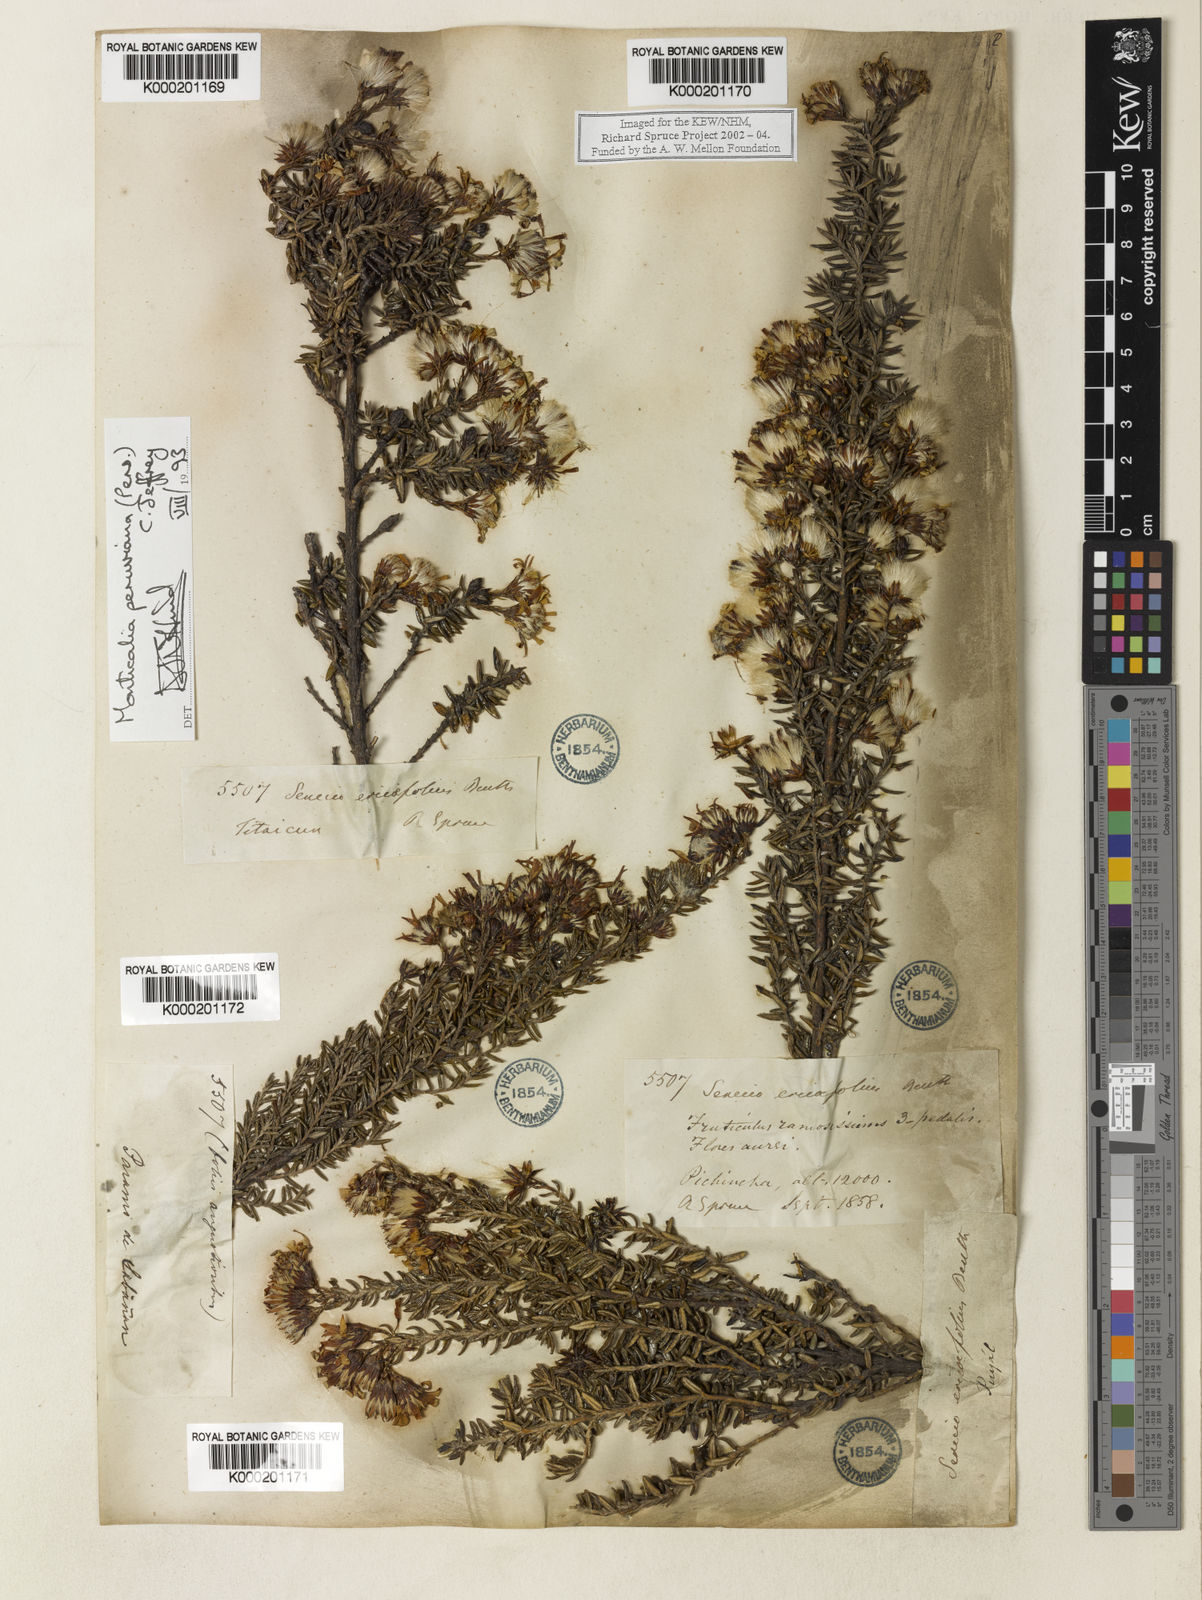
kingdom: Plantae
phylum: Tracheophyta
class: Magnoliopsida
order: Asterales
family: Asteraceae
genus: Monticalia
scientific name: Monticalia peruviana
